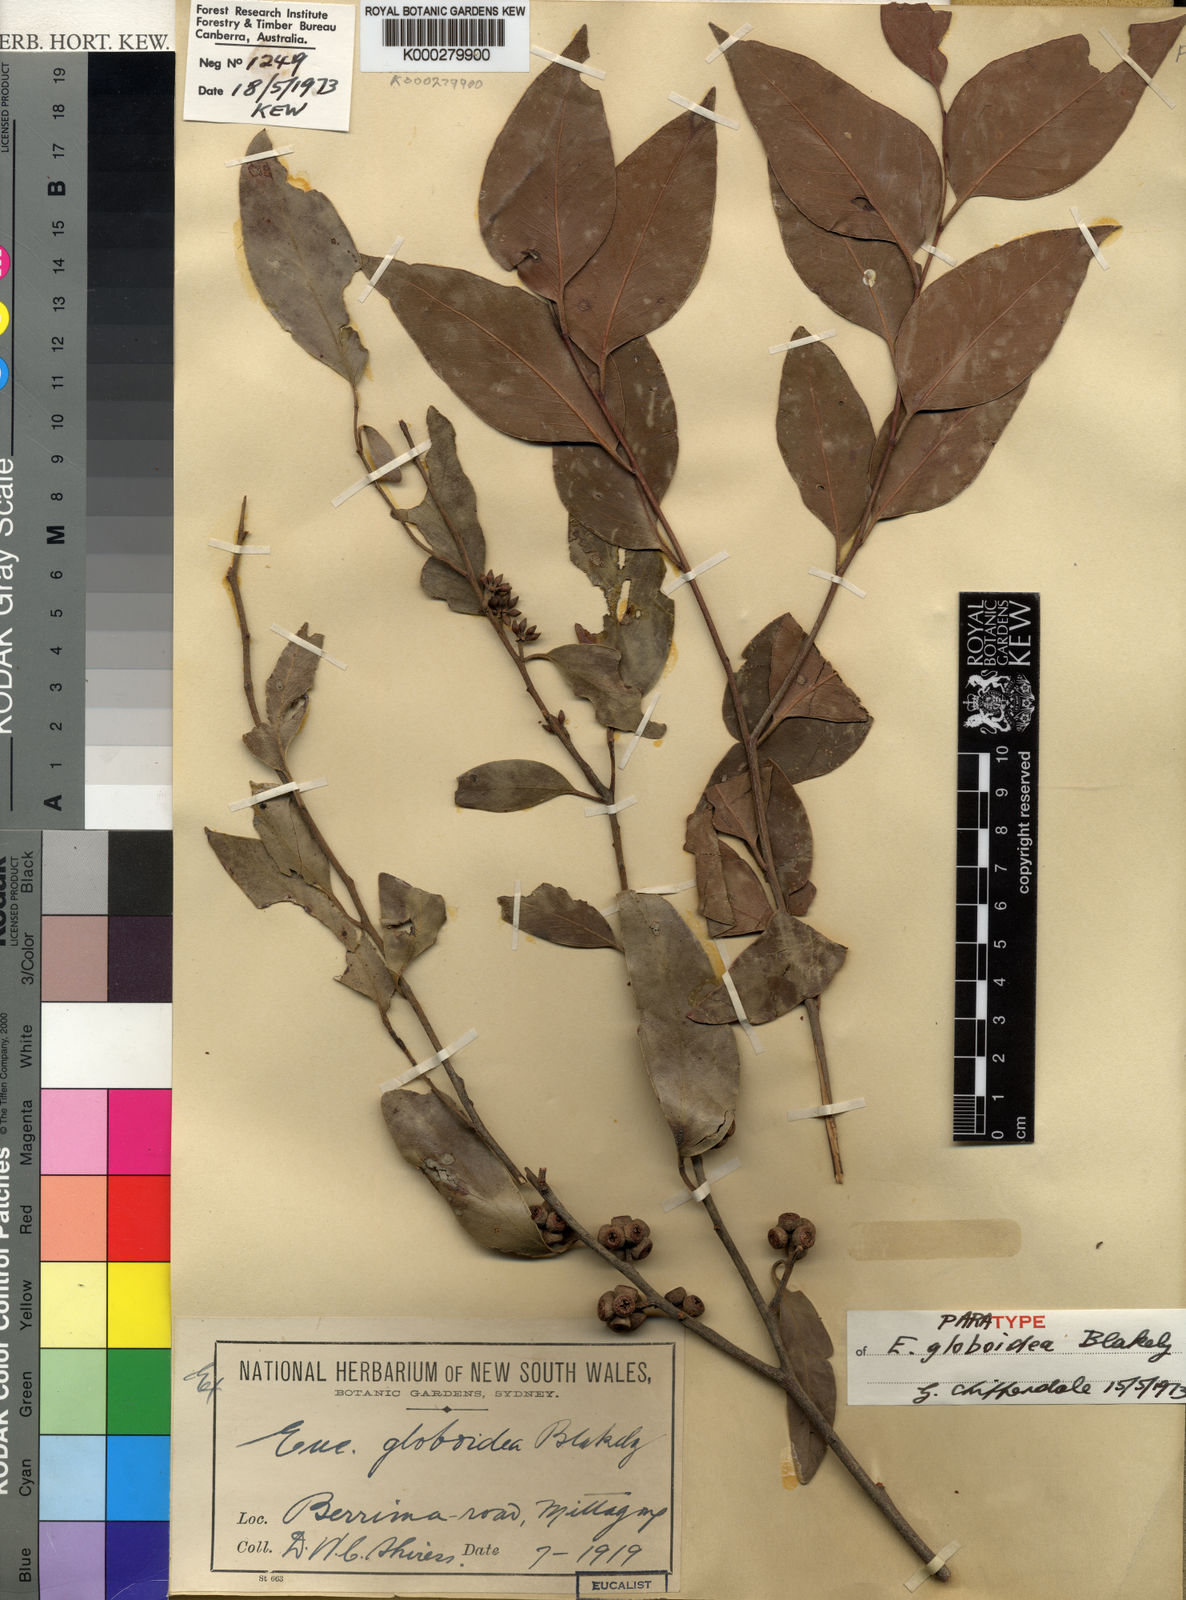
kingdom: Plantae
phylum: Tracheophyta
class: Magnoliopsida
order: Myrtales
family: Myrtaceae
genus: Eucalyptus
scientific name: Eucalyptus globoidea
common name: White-stringybark
